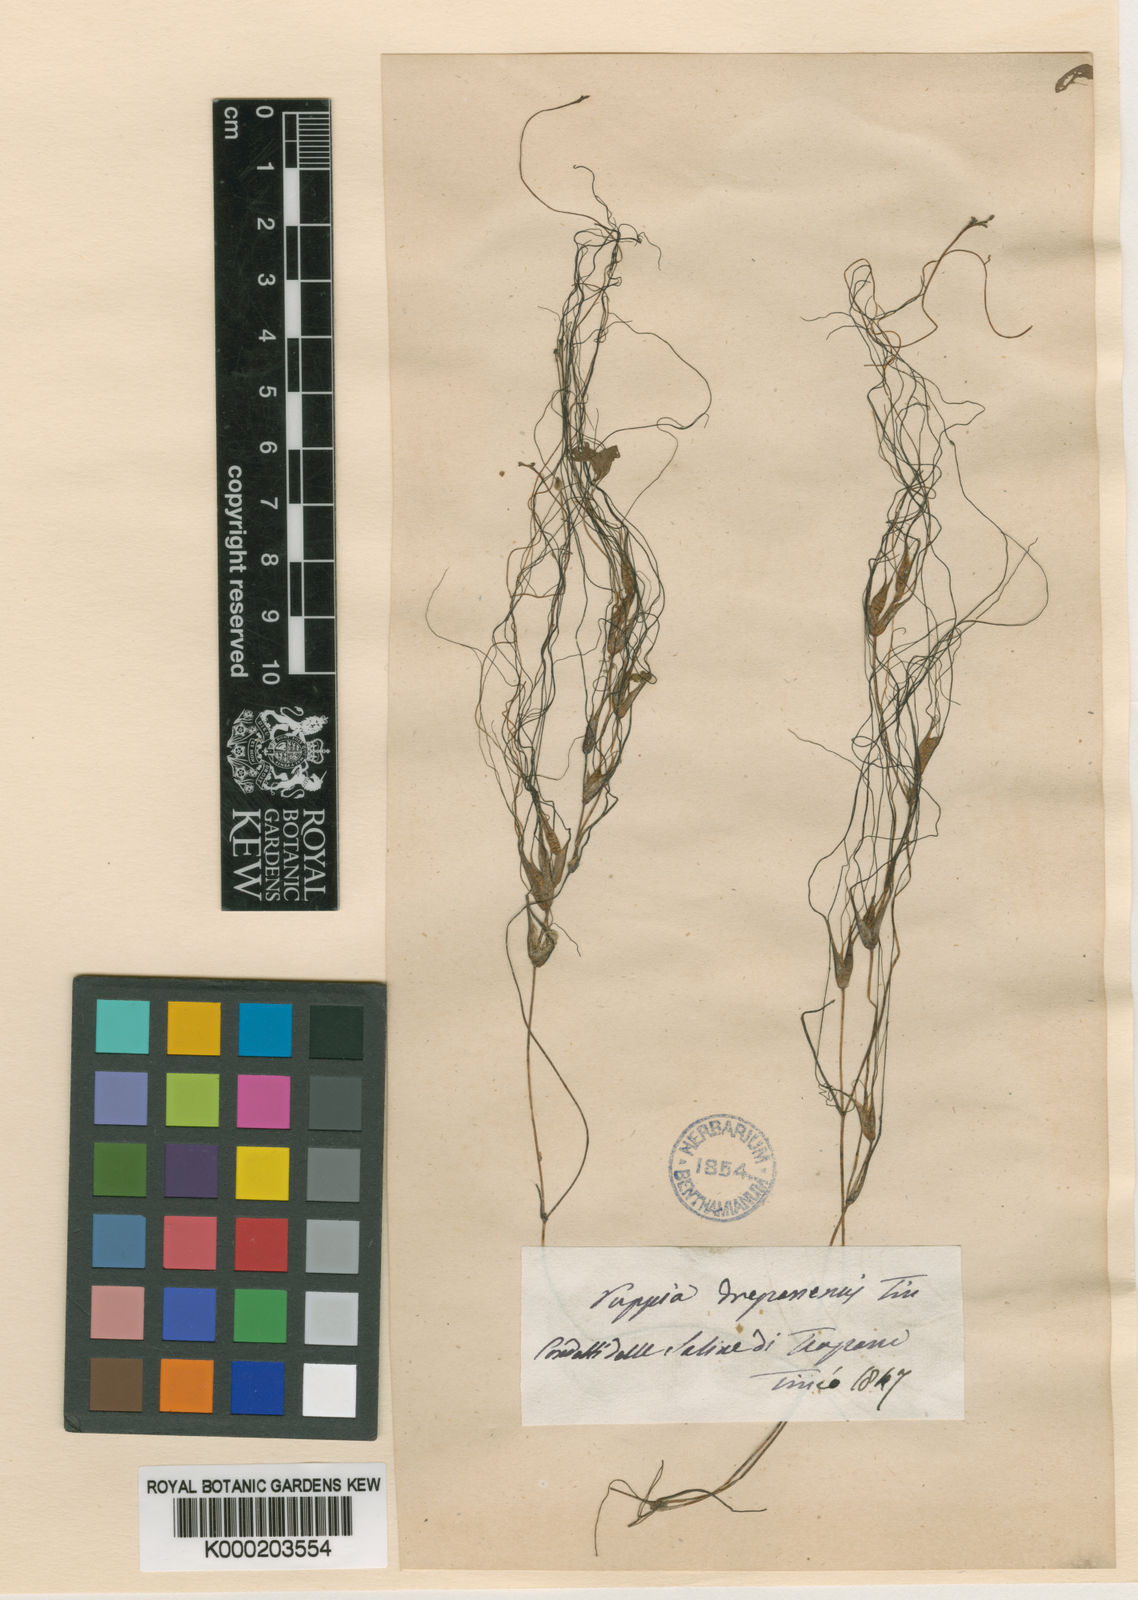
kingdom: Plantae
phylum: Tracheophyta
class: Liliopsida
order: Alismatales
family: Ruppiaceae
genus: Ruppia
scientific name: Ruppia maritima
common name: Beaked tasselweed
